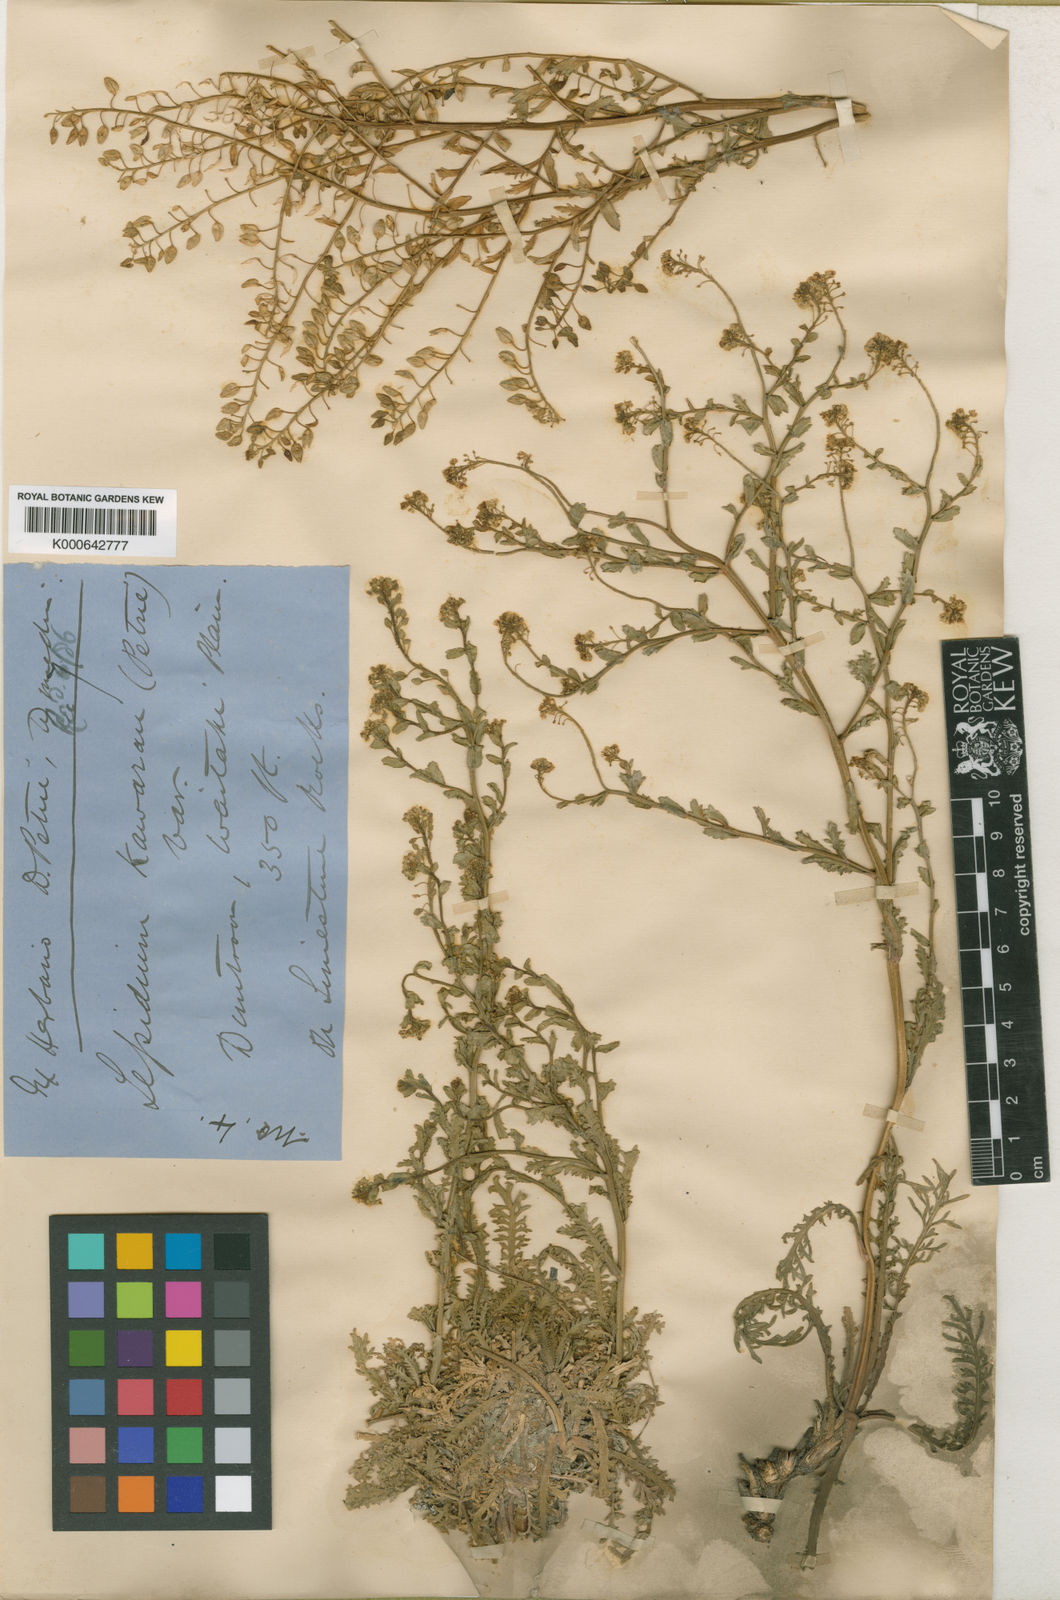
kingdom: Plantae
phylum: Tracheophyta
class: Magnoliopsida
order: Brassicales
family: Brassicaceae
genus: Lepidium
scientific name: Lepidium kawarau
